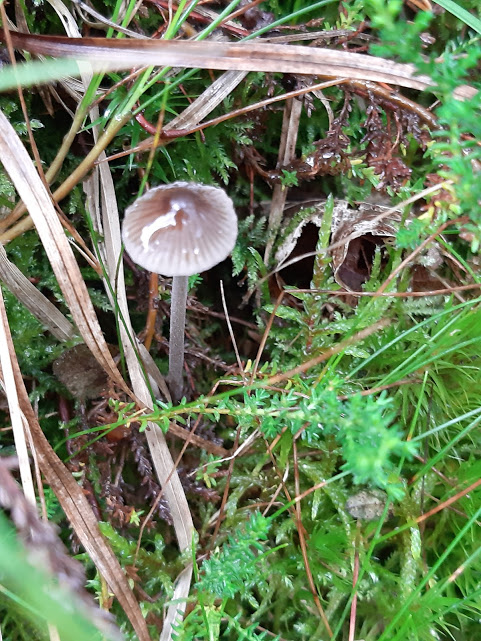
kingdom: Fungi
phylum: Basidiomycota
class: Agaricomycetes
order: Agaricales
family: Mycenaceae
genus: Mycena
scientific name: Mycena
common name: huesvamp
